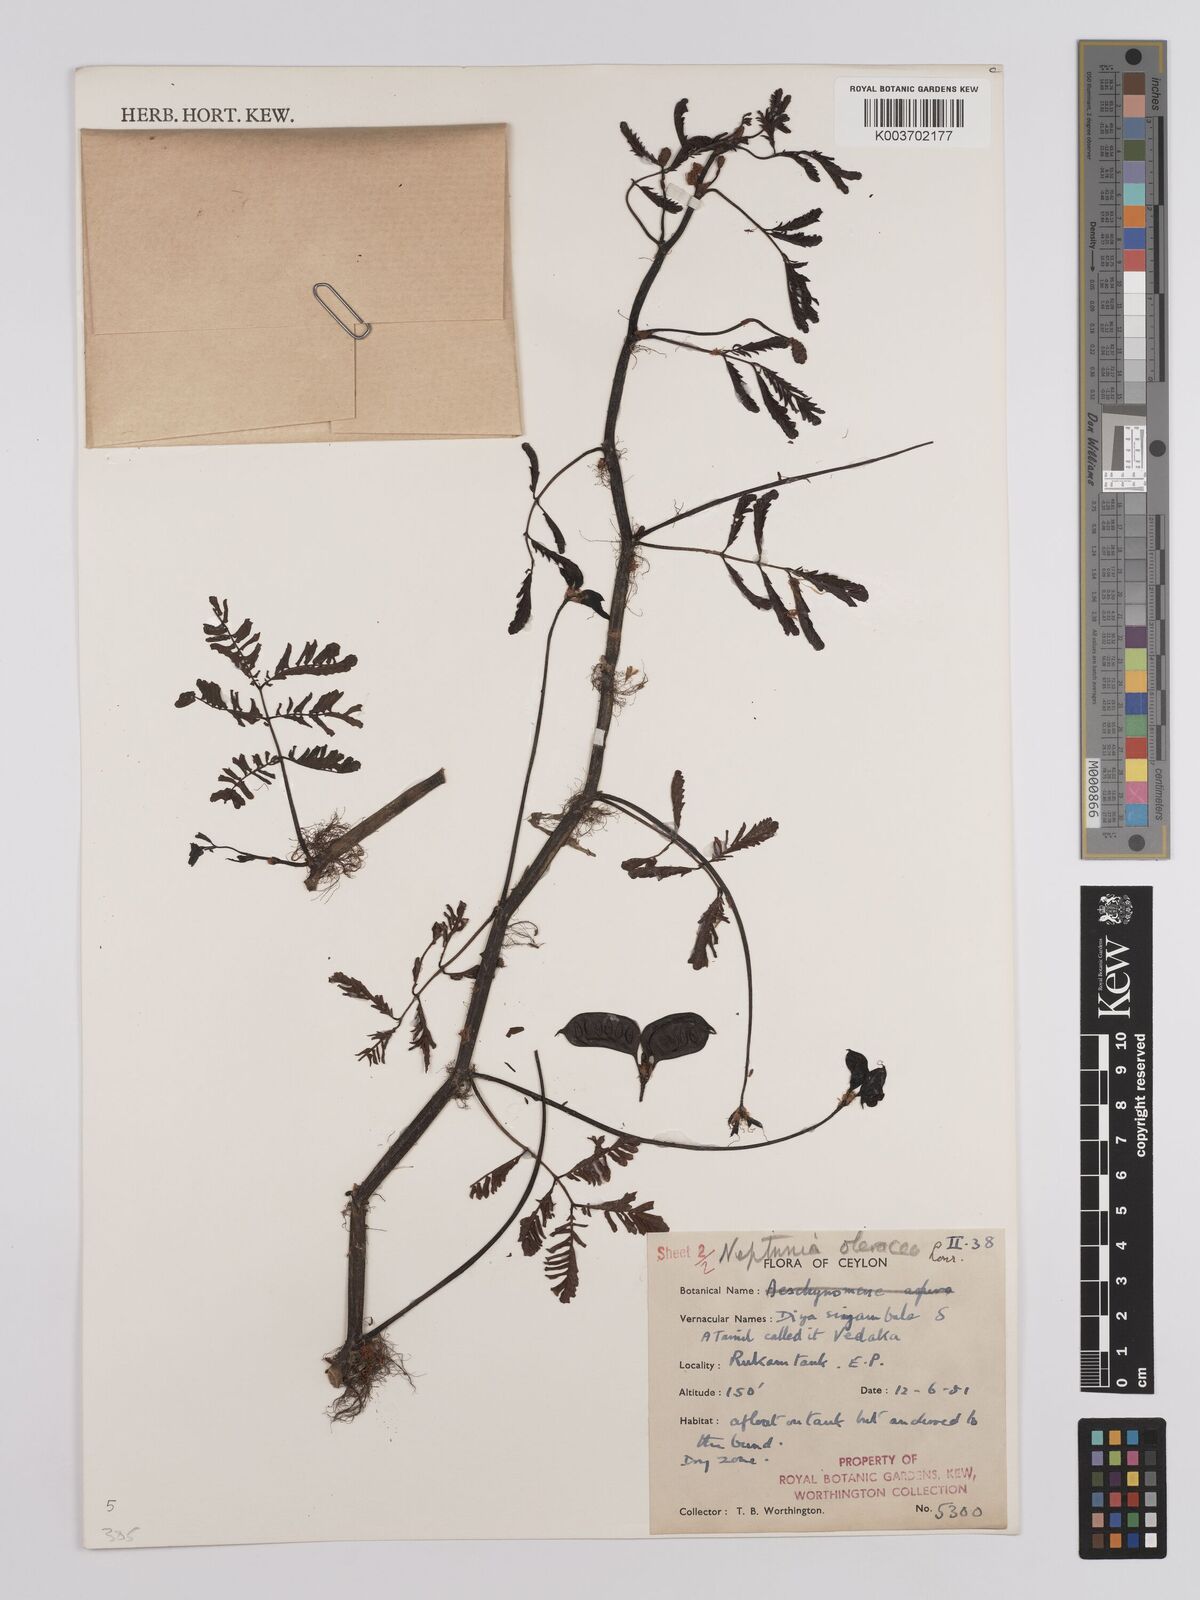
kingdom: Plantae
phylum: Tracheophyta
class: Magnoliopsida
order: Fabales
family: Fabaceae
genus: Neptunia
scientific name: Neptunia prostrata
